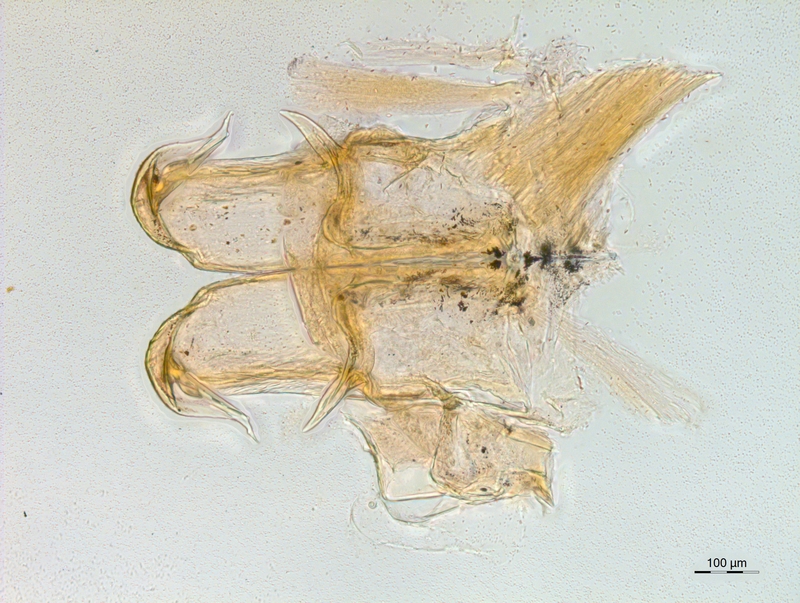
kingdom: Animalia
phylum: Arthropoda
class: Diplopoda
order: Chordeumatida
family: Craspedosomatidae
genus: Atractosoma
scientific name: Atractosoma
